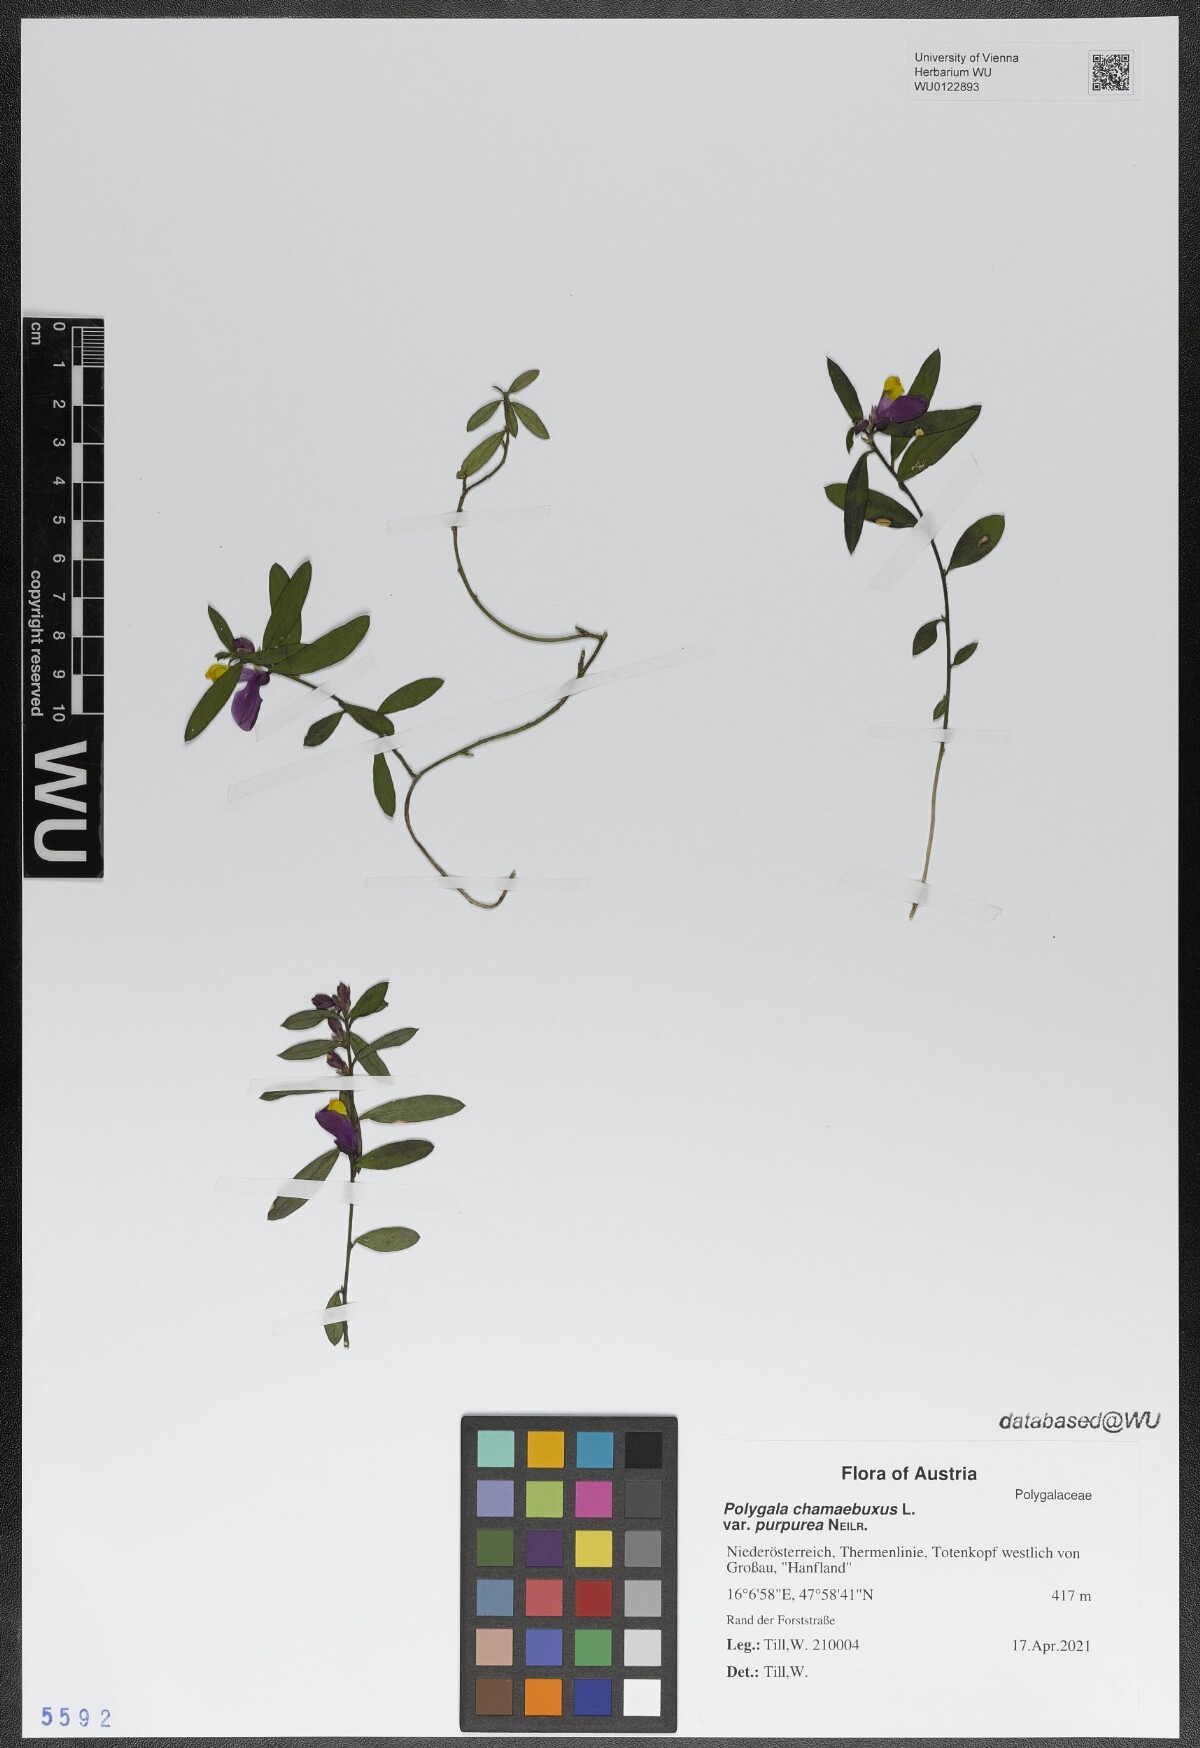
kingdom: Plantae
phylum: Tracheophyta
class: Magnoliopsida
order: Fabales
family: Polygalaceae
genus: Polygaloides
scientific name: Polygaloides chamaebuxus
